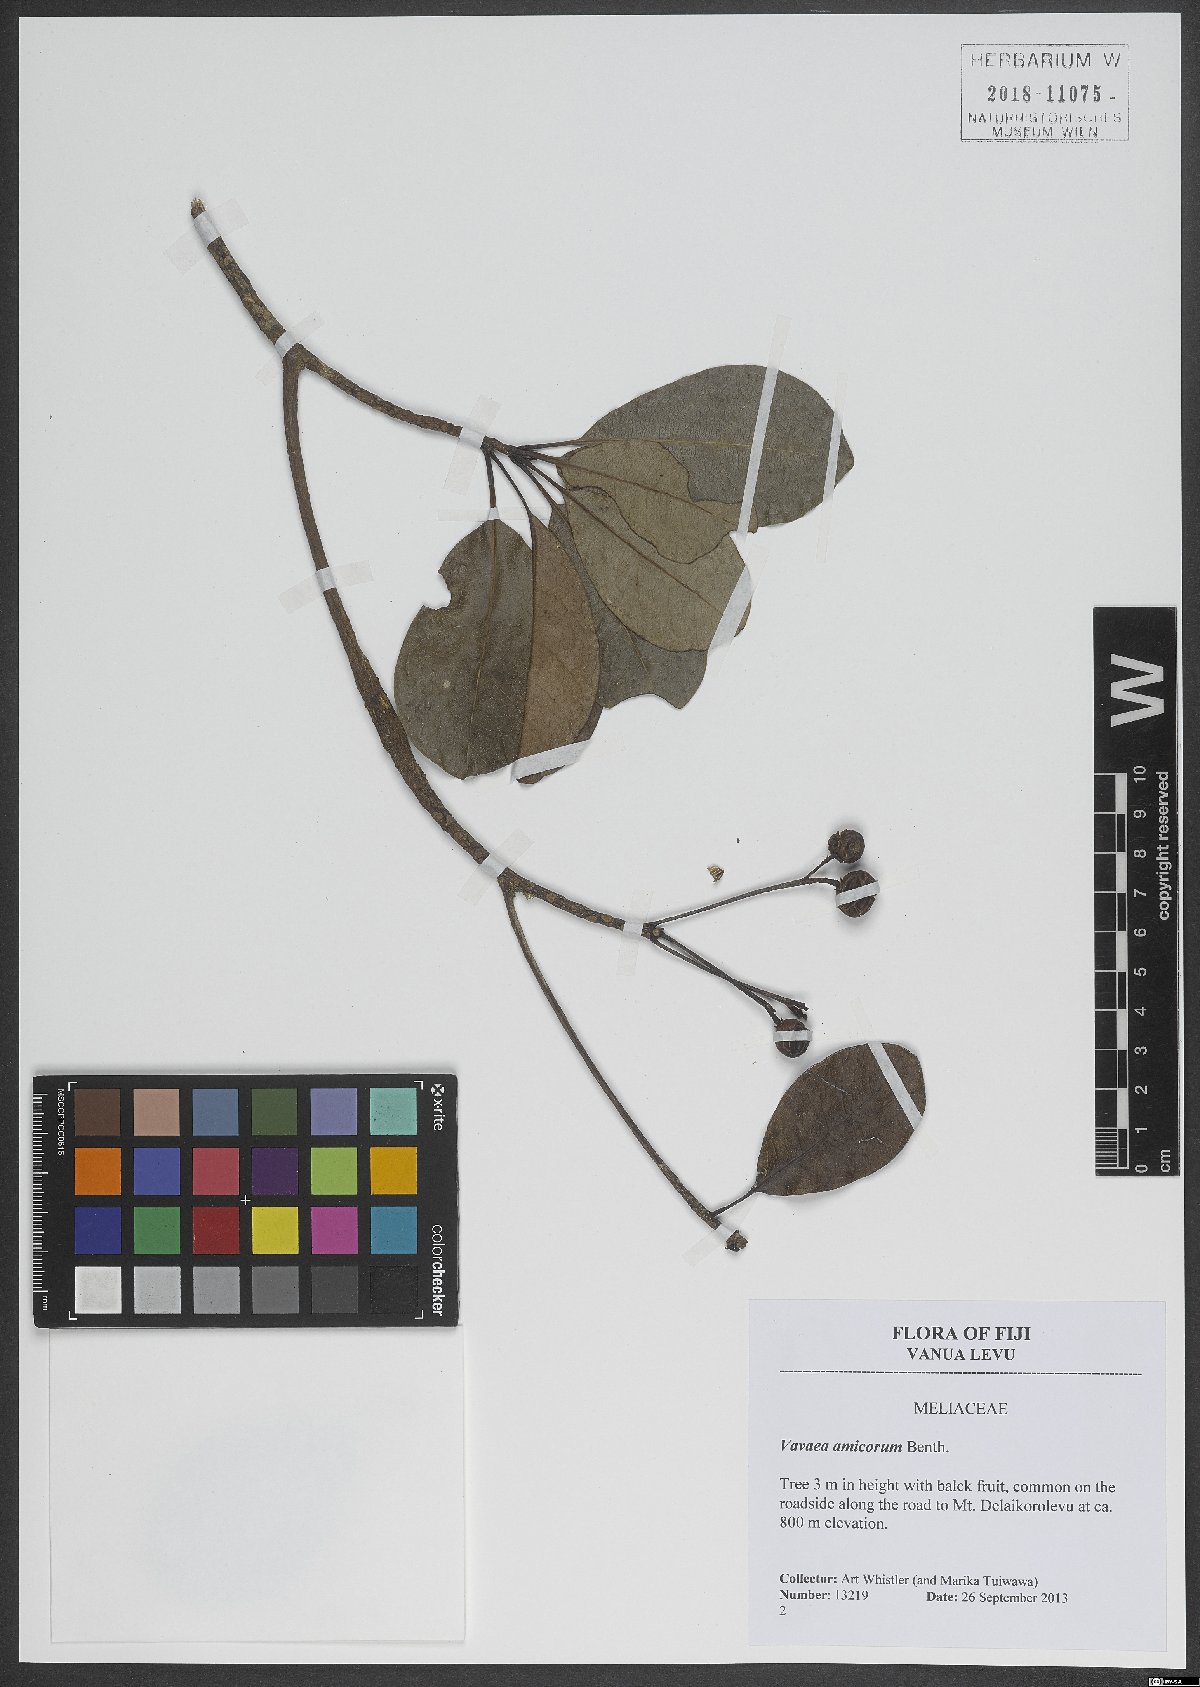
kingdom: Plantae
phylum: Tracheophyta
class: Magnoliopsida
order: Sapindales
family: Meliaceae
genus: Vavaea
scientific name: Vavaea amicorum
